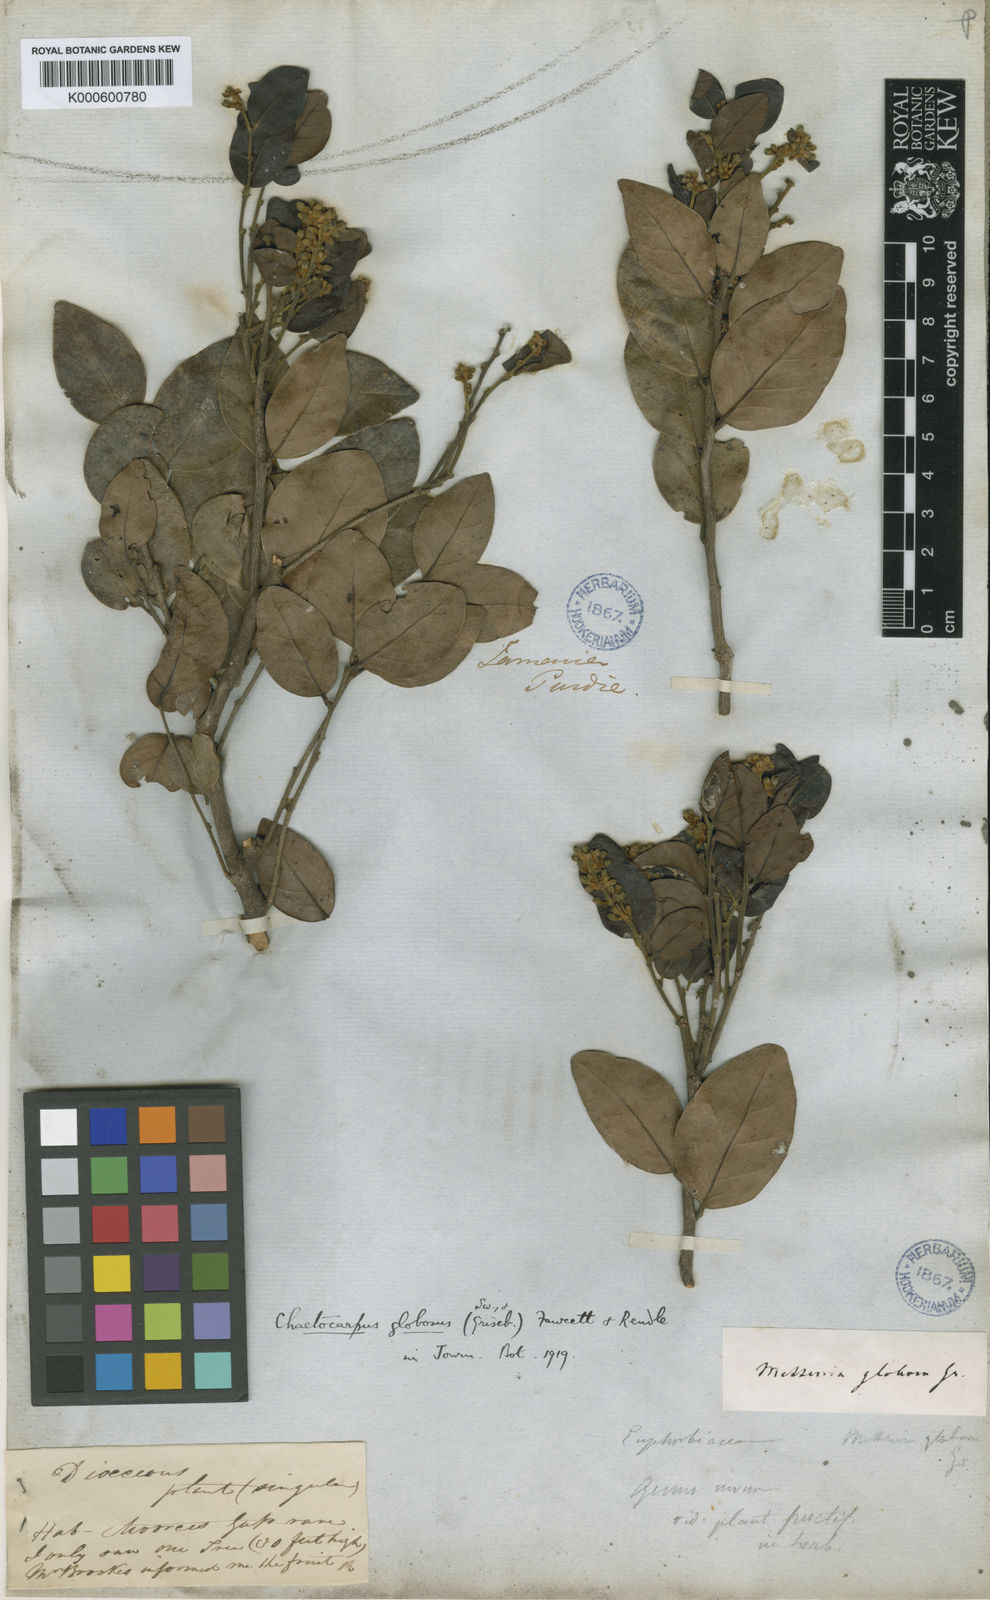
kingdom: Plantae
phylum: Tracheophyta
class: Magnoliopsida
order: Malpighiales
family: Peraceae
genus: Chaetocarpus
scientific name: Chaetocarpus globosus
